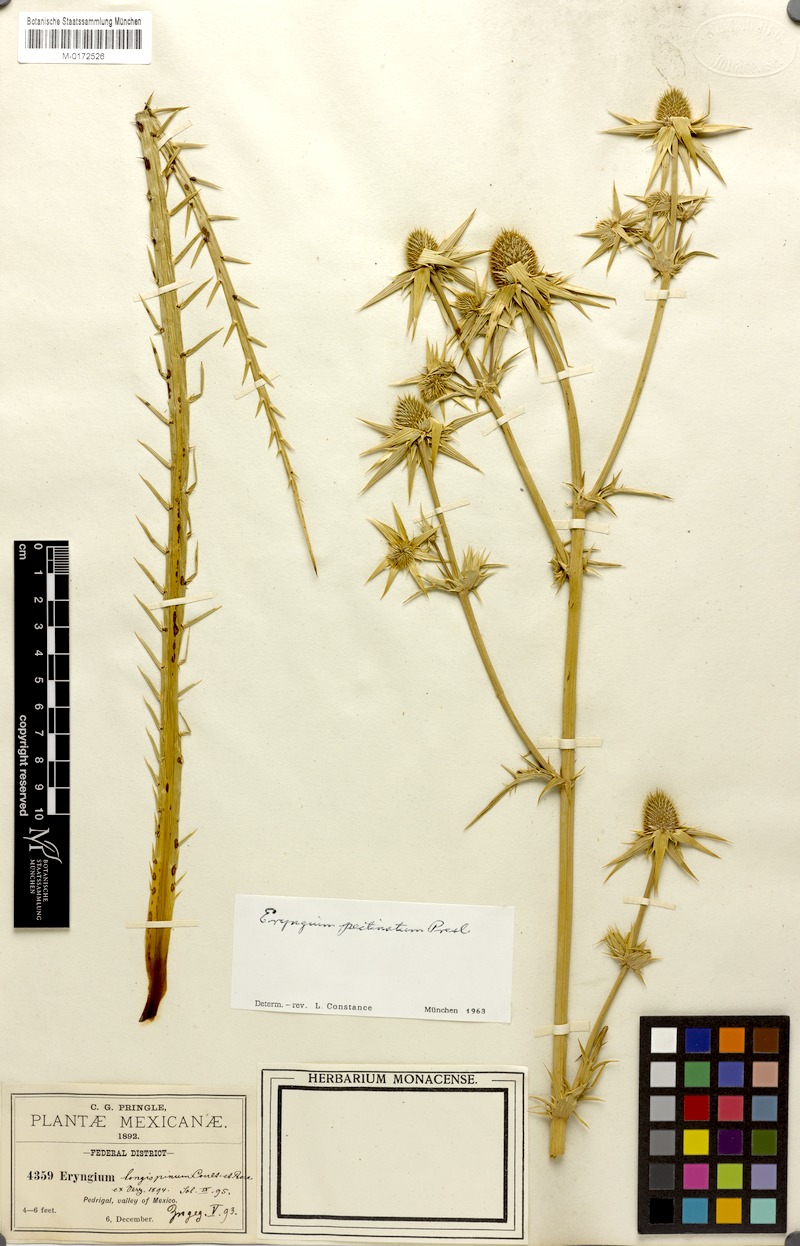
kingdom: Plantae
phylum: Tracheophyta
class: Magnoliopsida
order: Apiales
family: Apiaceae
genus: Eryngium
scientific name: Eryngium pectinatum
